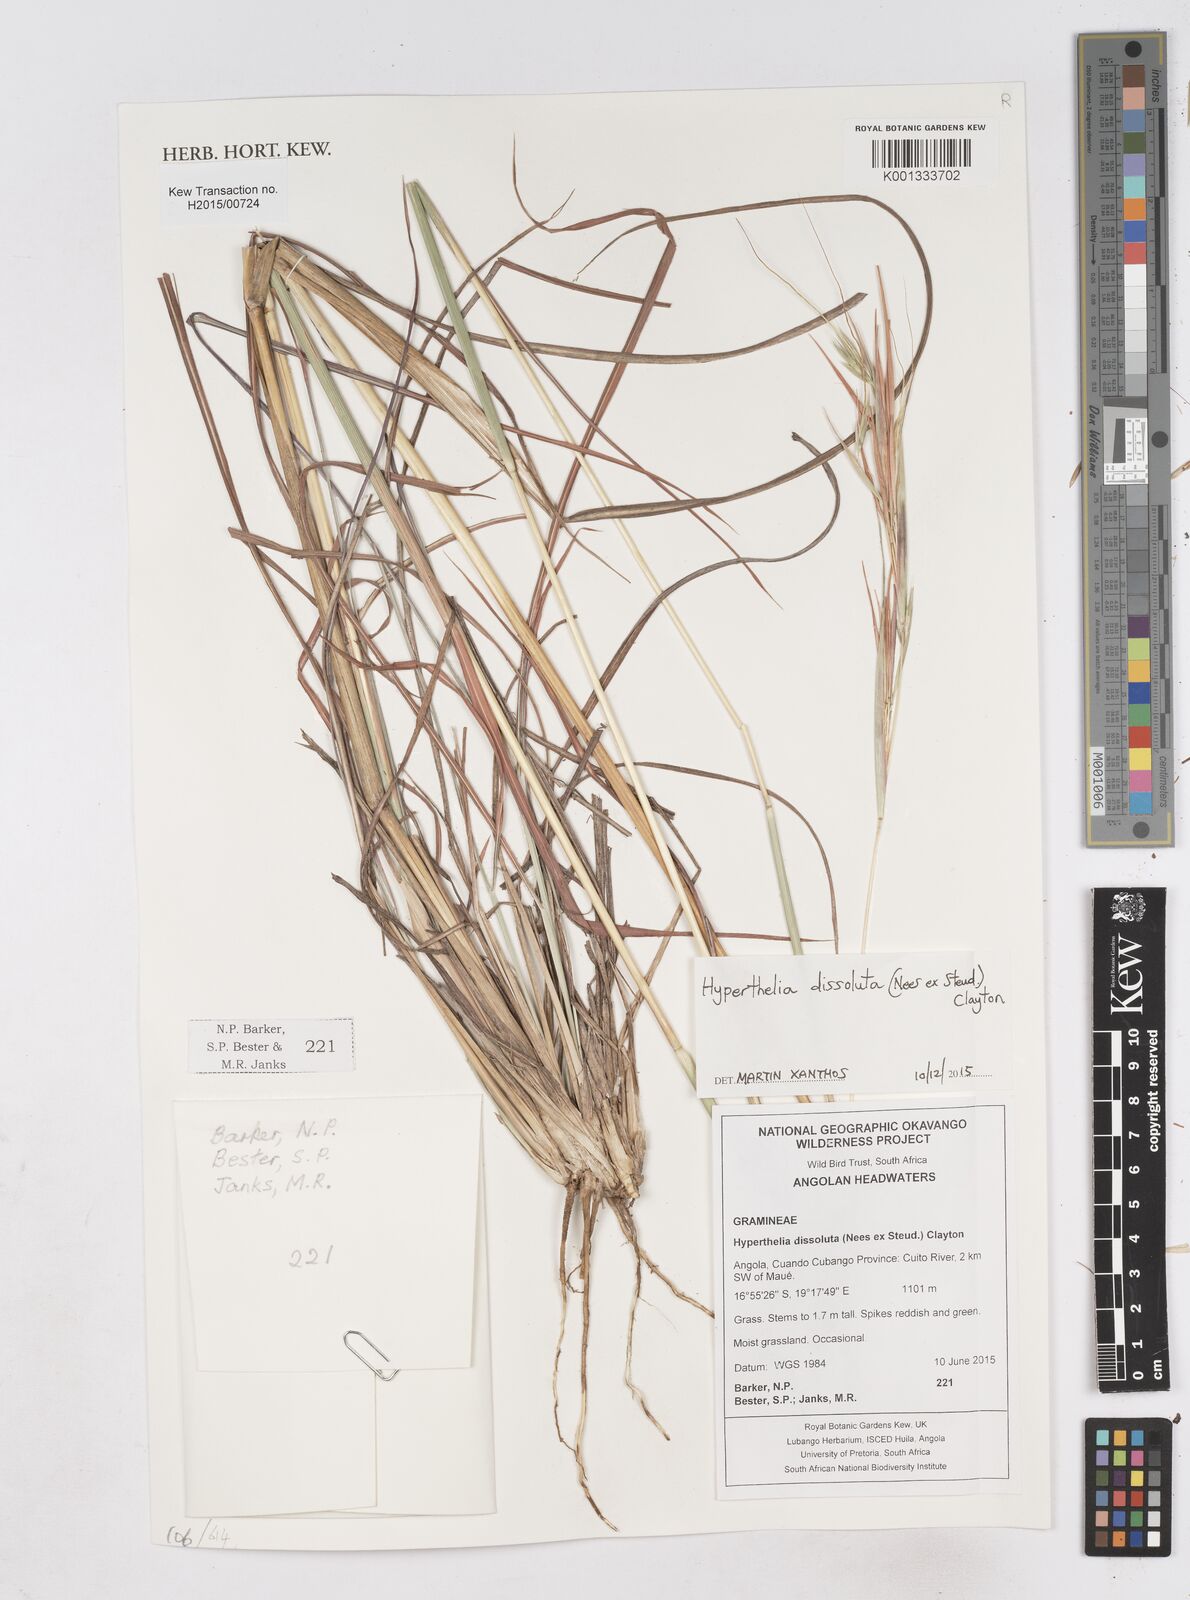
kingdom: Plantae
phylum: Tracheophyta
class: Liliopsida
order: Poales
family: Poaceae
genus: Hyperthelia
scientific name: Hyperthelia dissoluta
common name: Yellow thatching grass
